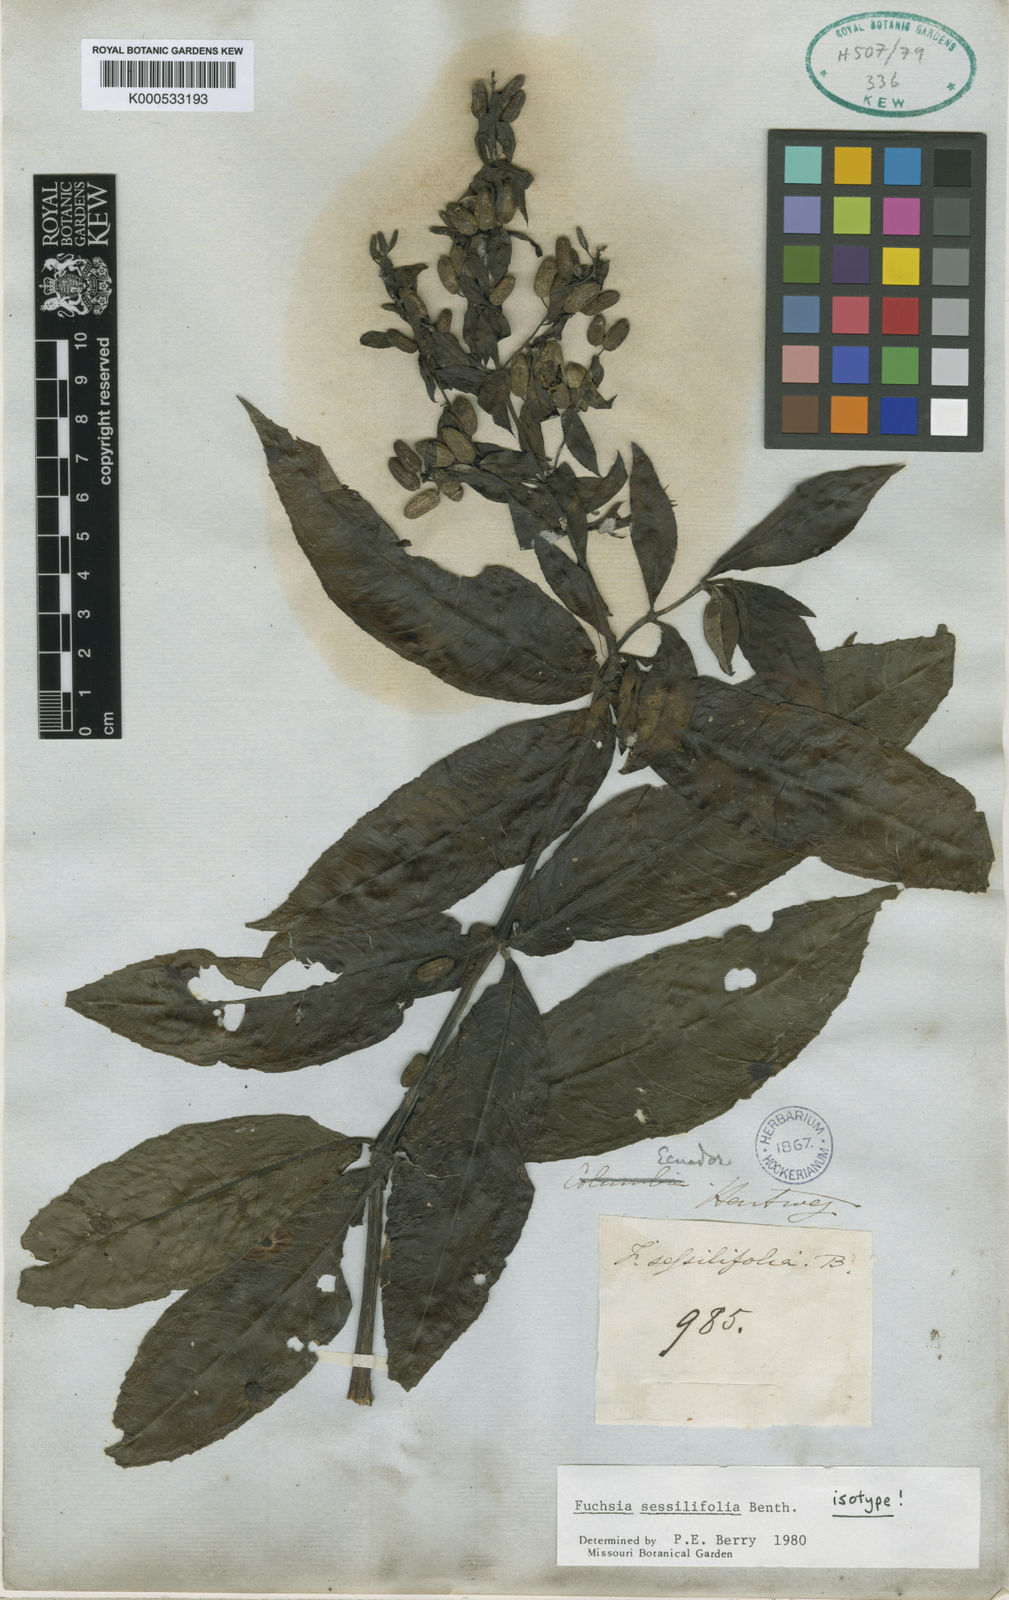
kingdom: Plantae
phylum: Tracheophyta
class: Magnoliopsida
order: Myrtales
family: Onagraceae
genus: Fuchsia
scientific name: Fuchsia sessilifolia
